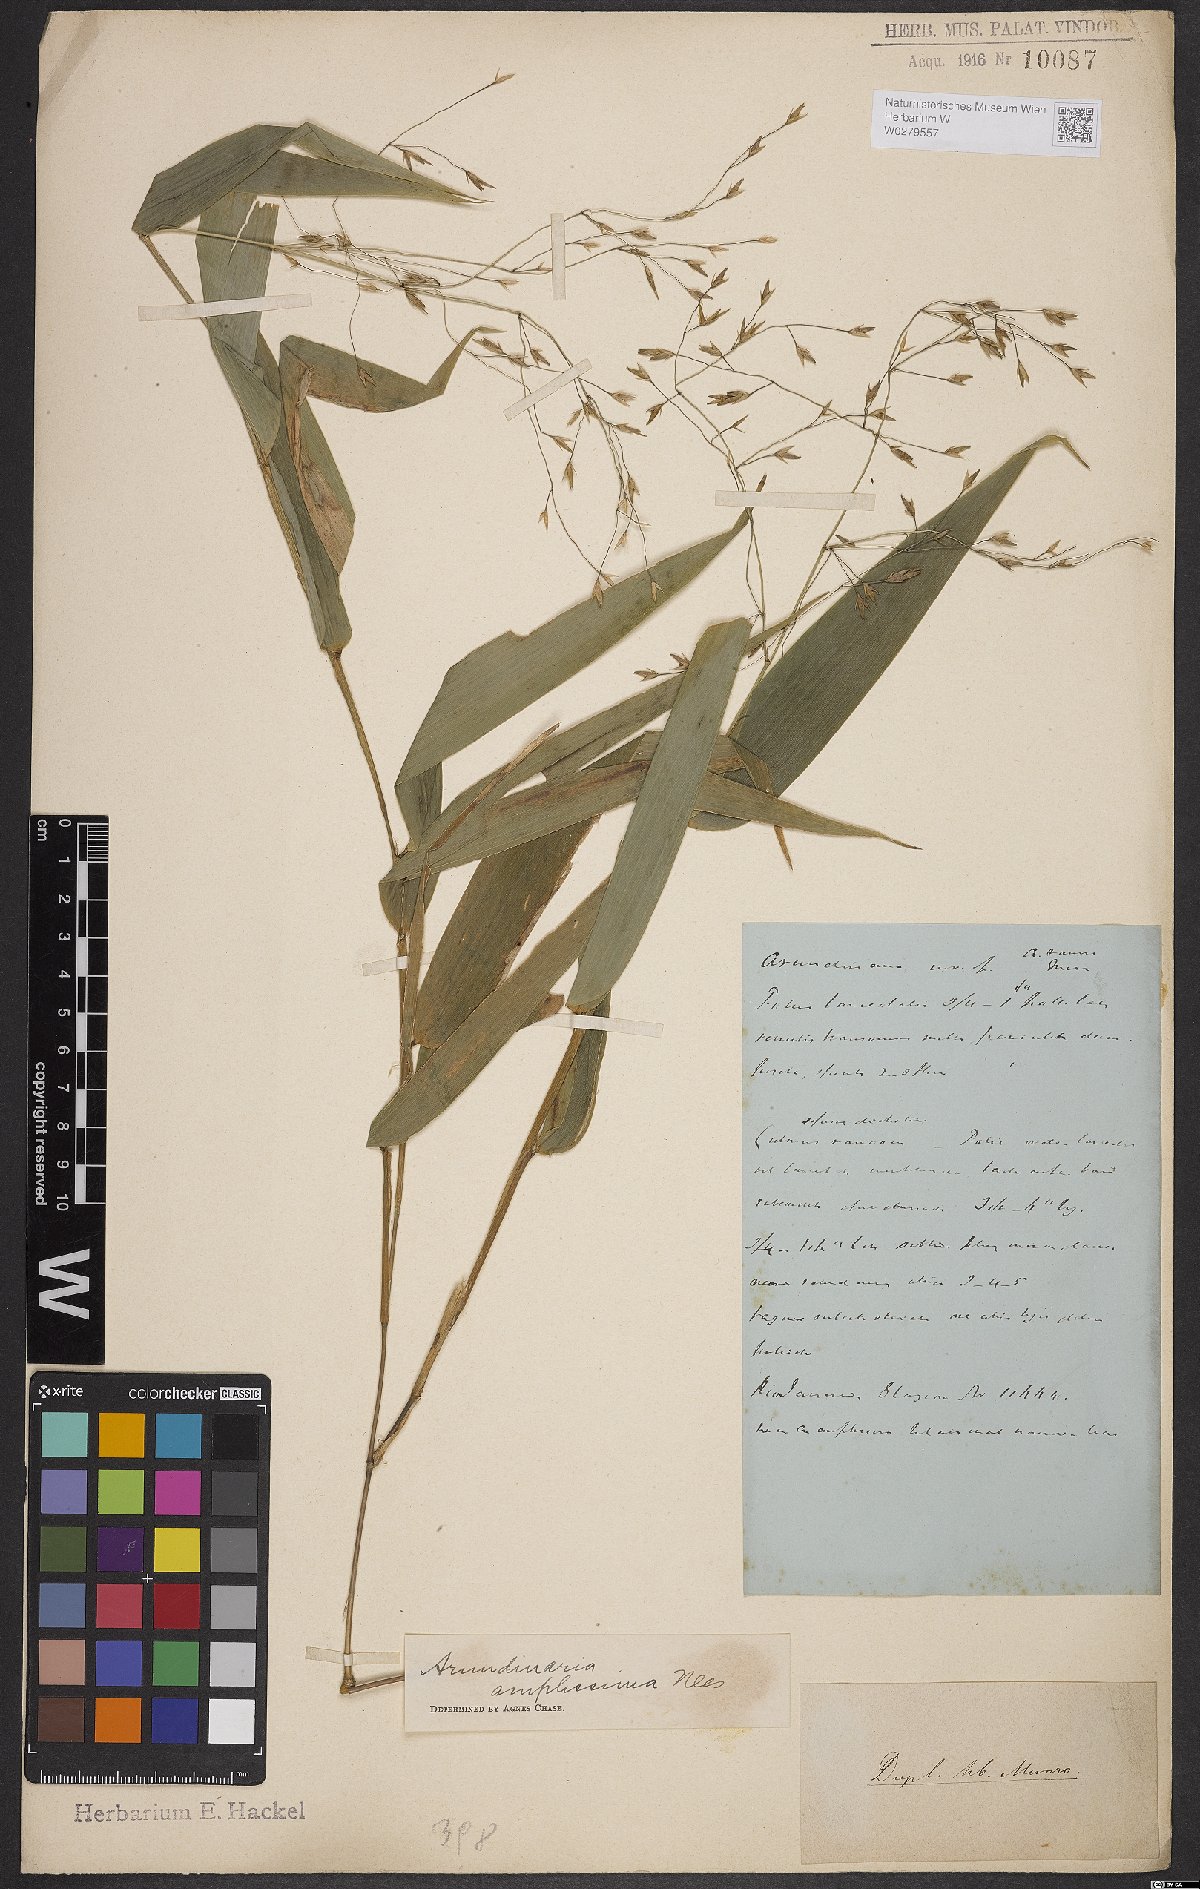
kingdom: Plantae
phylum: Tracheophyta
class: Liliopsida
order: Poales
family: Poaceae
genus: Aulonemia
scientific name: Aulonemia amplissima
